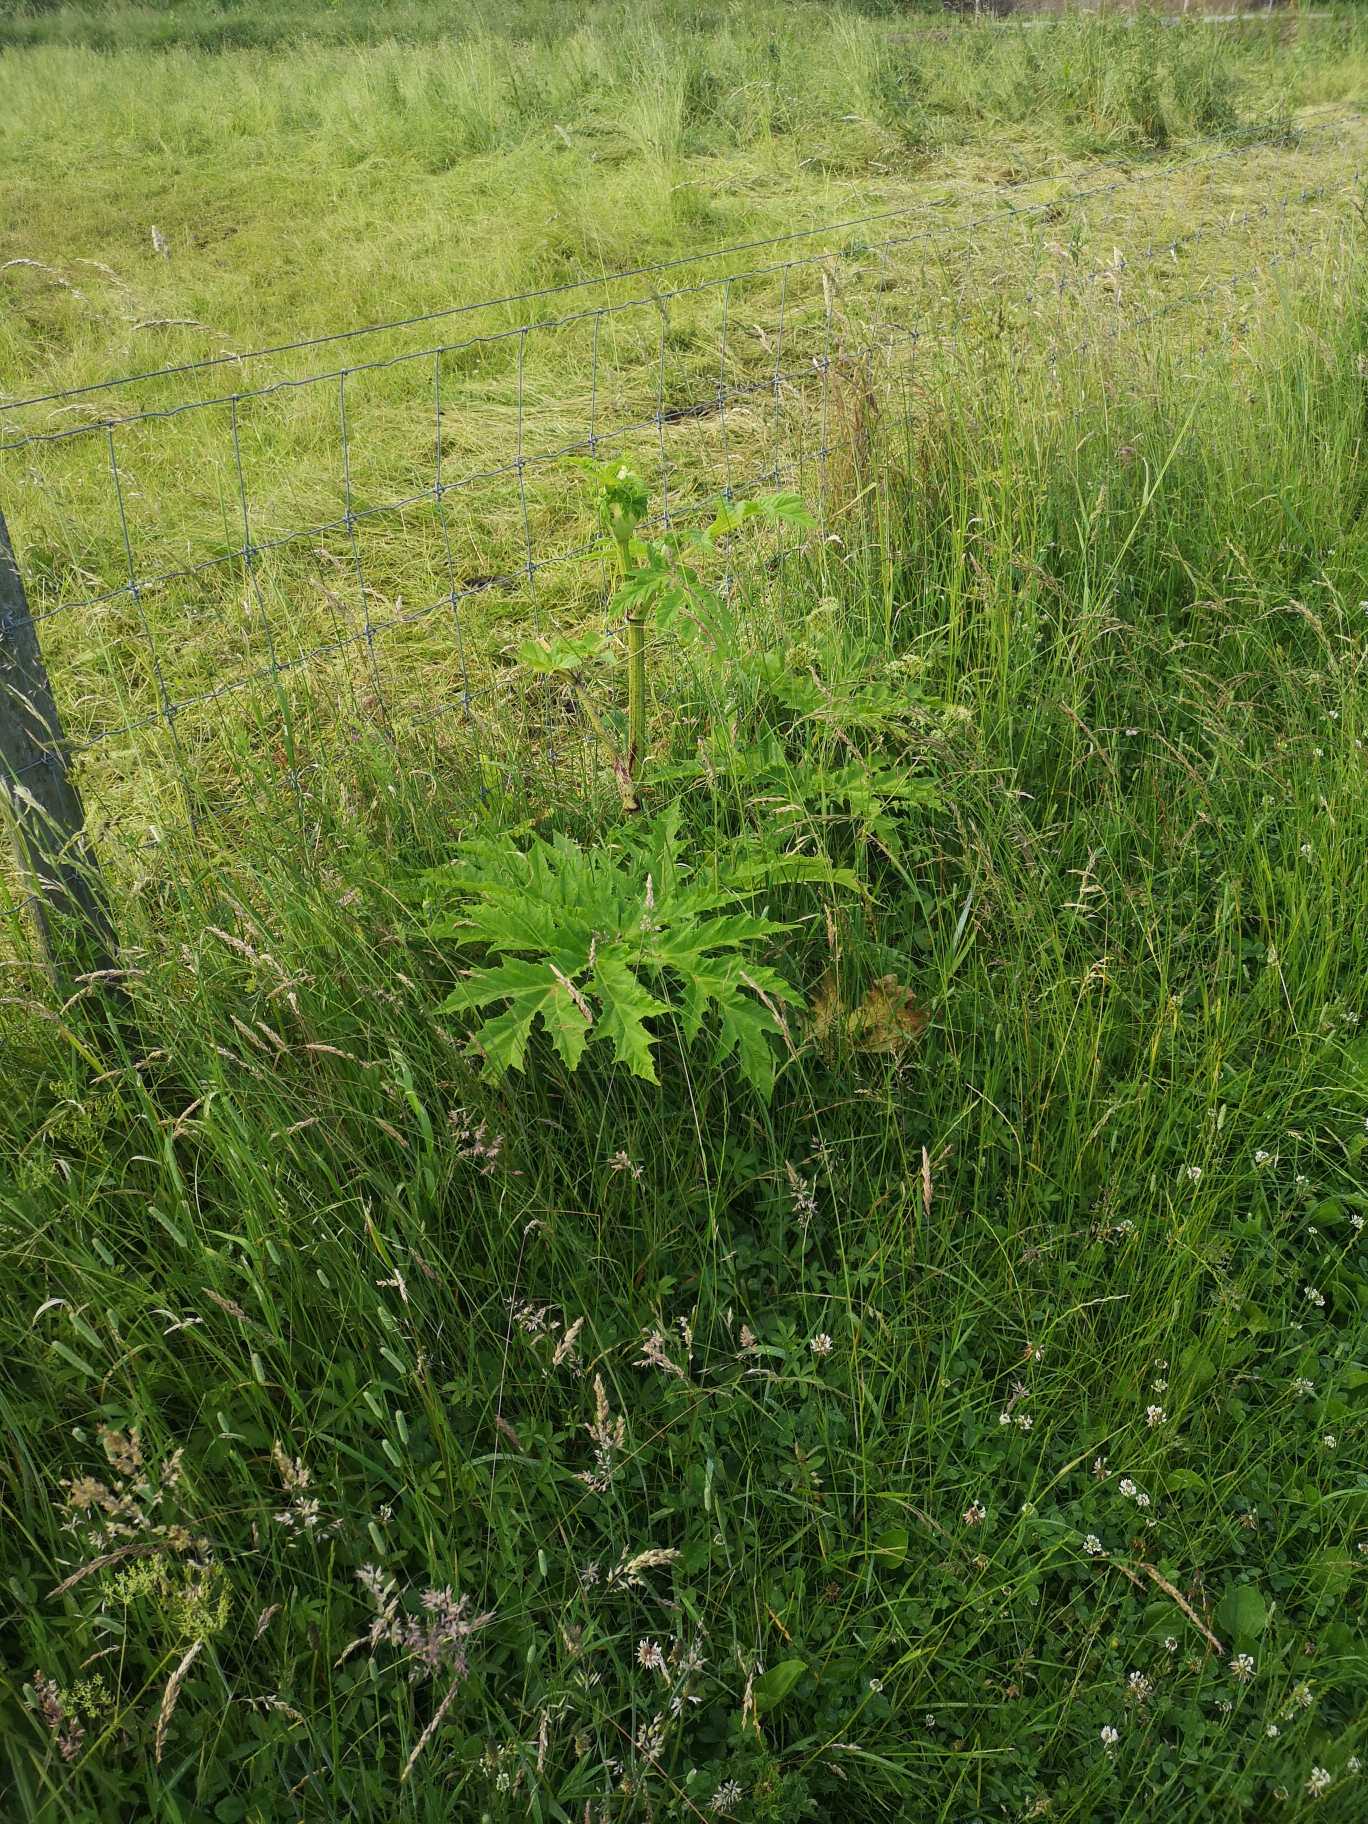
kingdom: Plantae
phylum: Tracheophyta
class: Magnoliopsida
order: Apiales
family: Apiaceae
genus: Heracleum
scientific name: Heracleum mantegazzianum
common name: Kæmpe-bjørneklo
